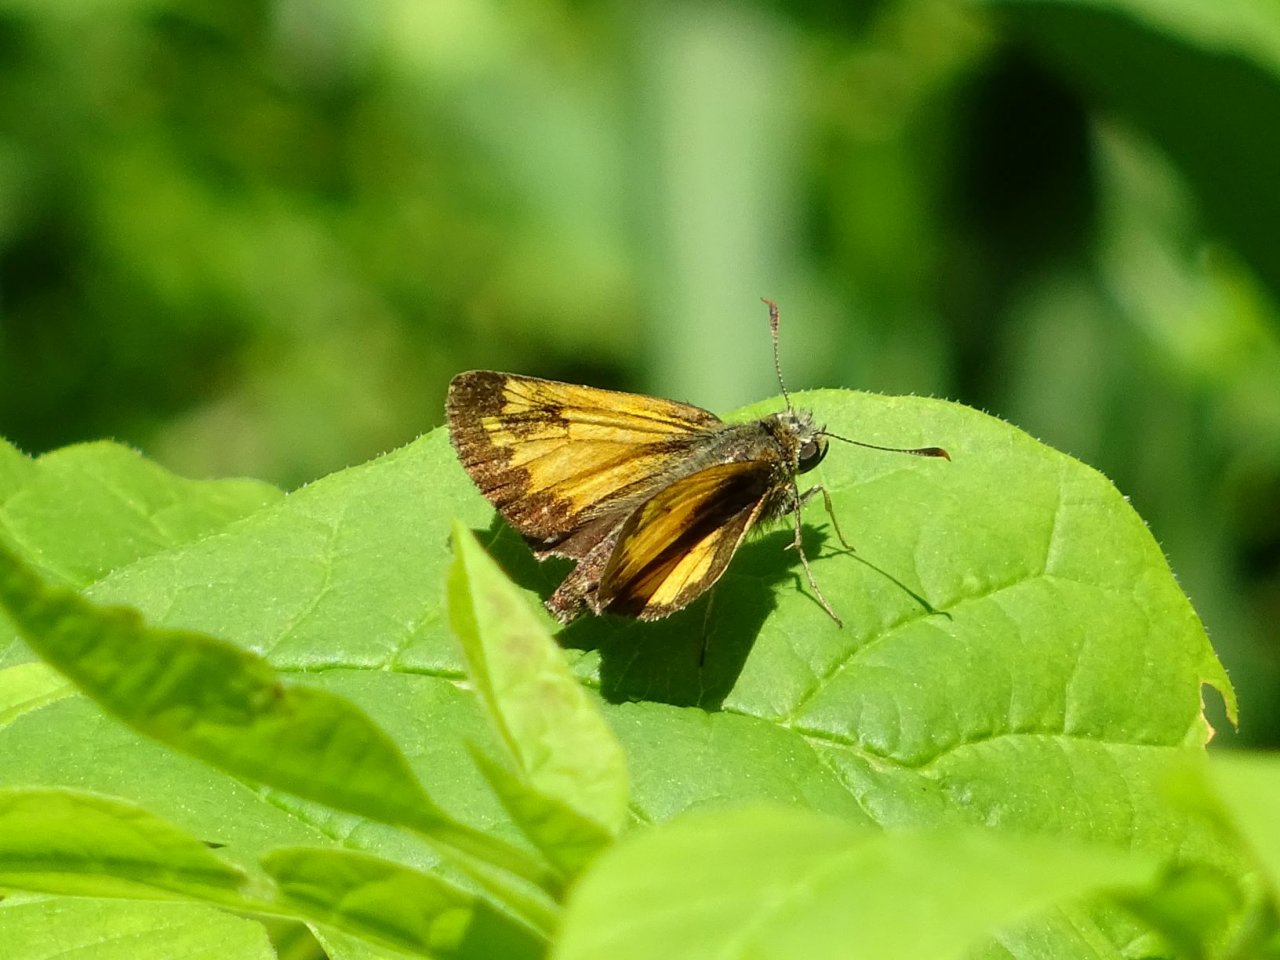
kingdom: Animalia
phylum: Arthropoda
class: Insecta
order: Lepidoptera
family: Hesperiidae
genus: Lon
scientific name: Lon hobomok
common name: Hobomok Skipper
